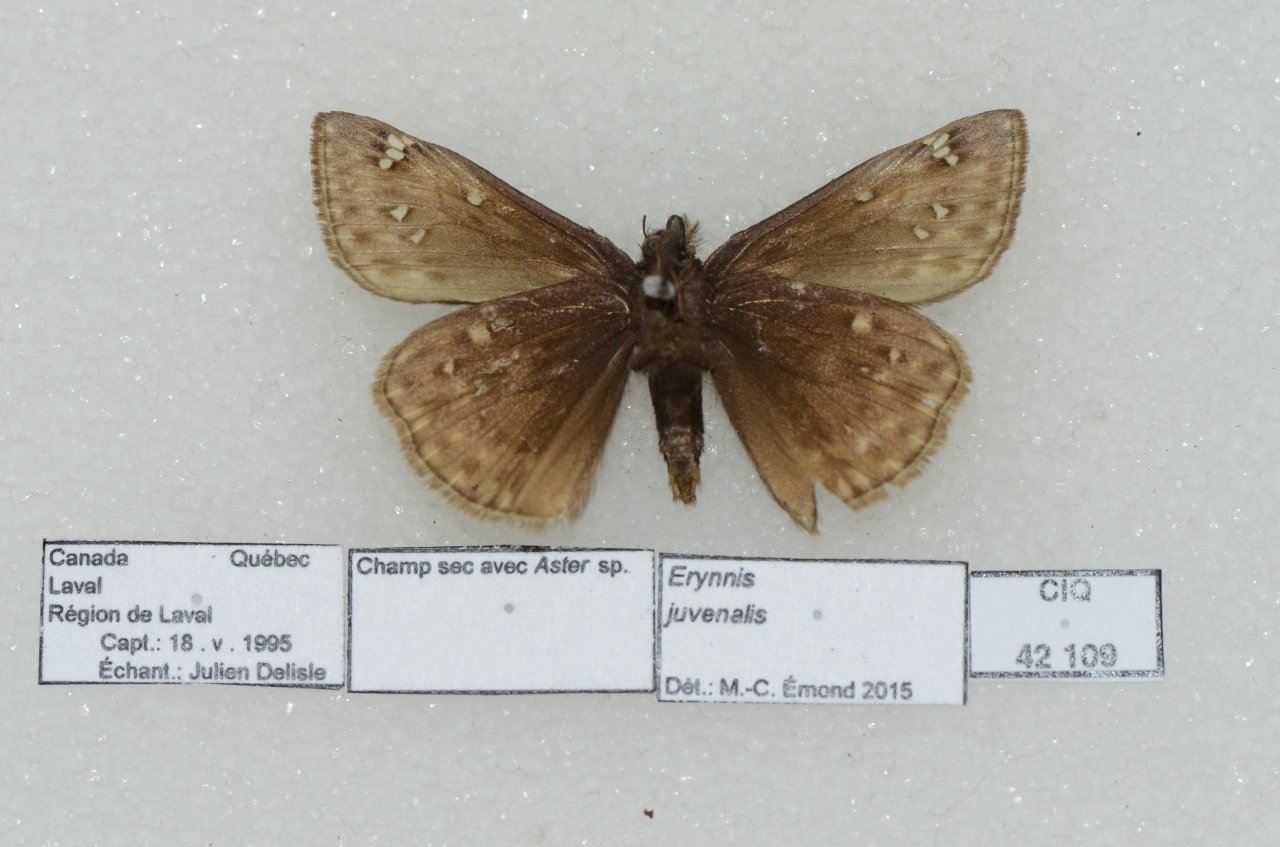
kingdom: Animalia
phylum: Arthropoda
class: Insecta
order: Lepidoptera
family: Hesperiidae
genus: Gesta
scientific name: Gesta
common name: Juvenal's Duskywing
